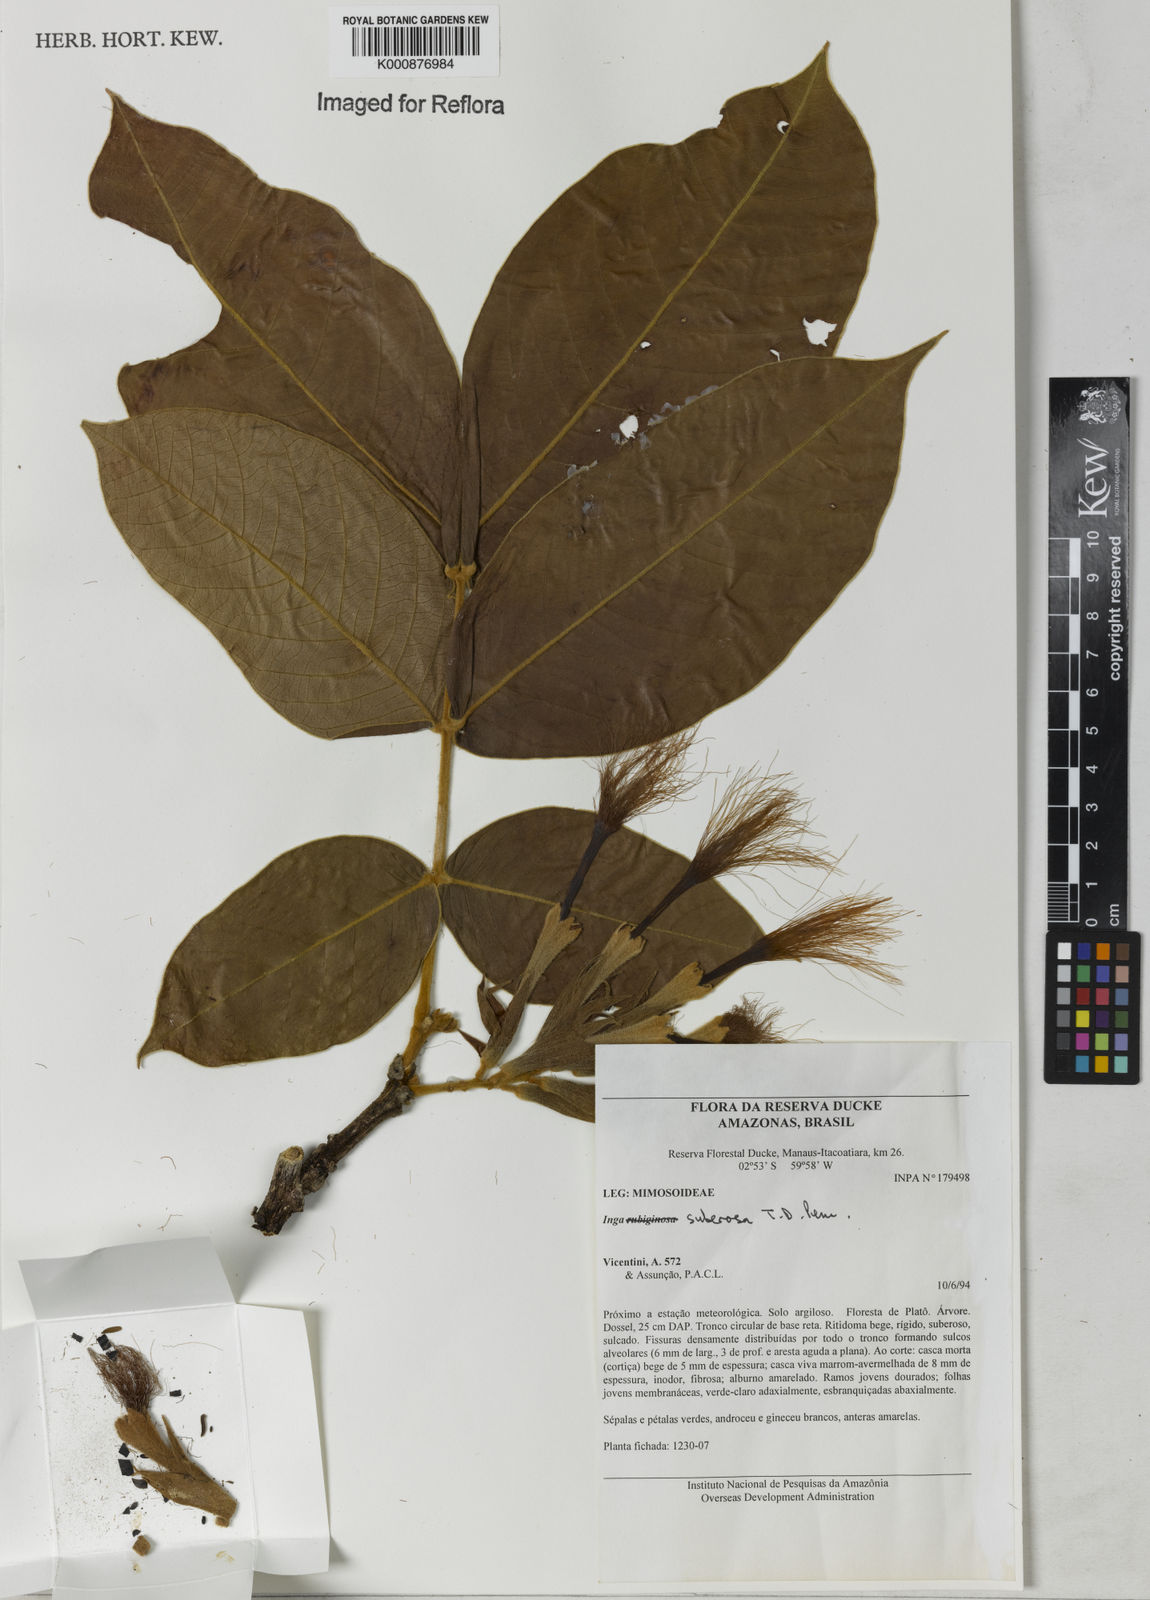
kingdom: Plantae
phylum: Tracheophyta
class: Magnoliopsida
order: Fabales
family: Fabaceae
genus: Inga
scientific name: Inga suberosa
